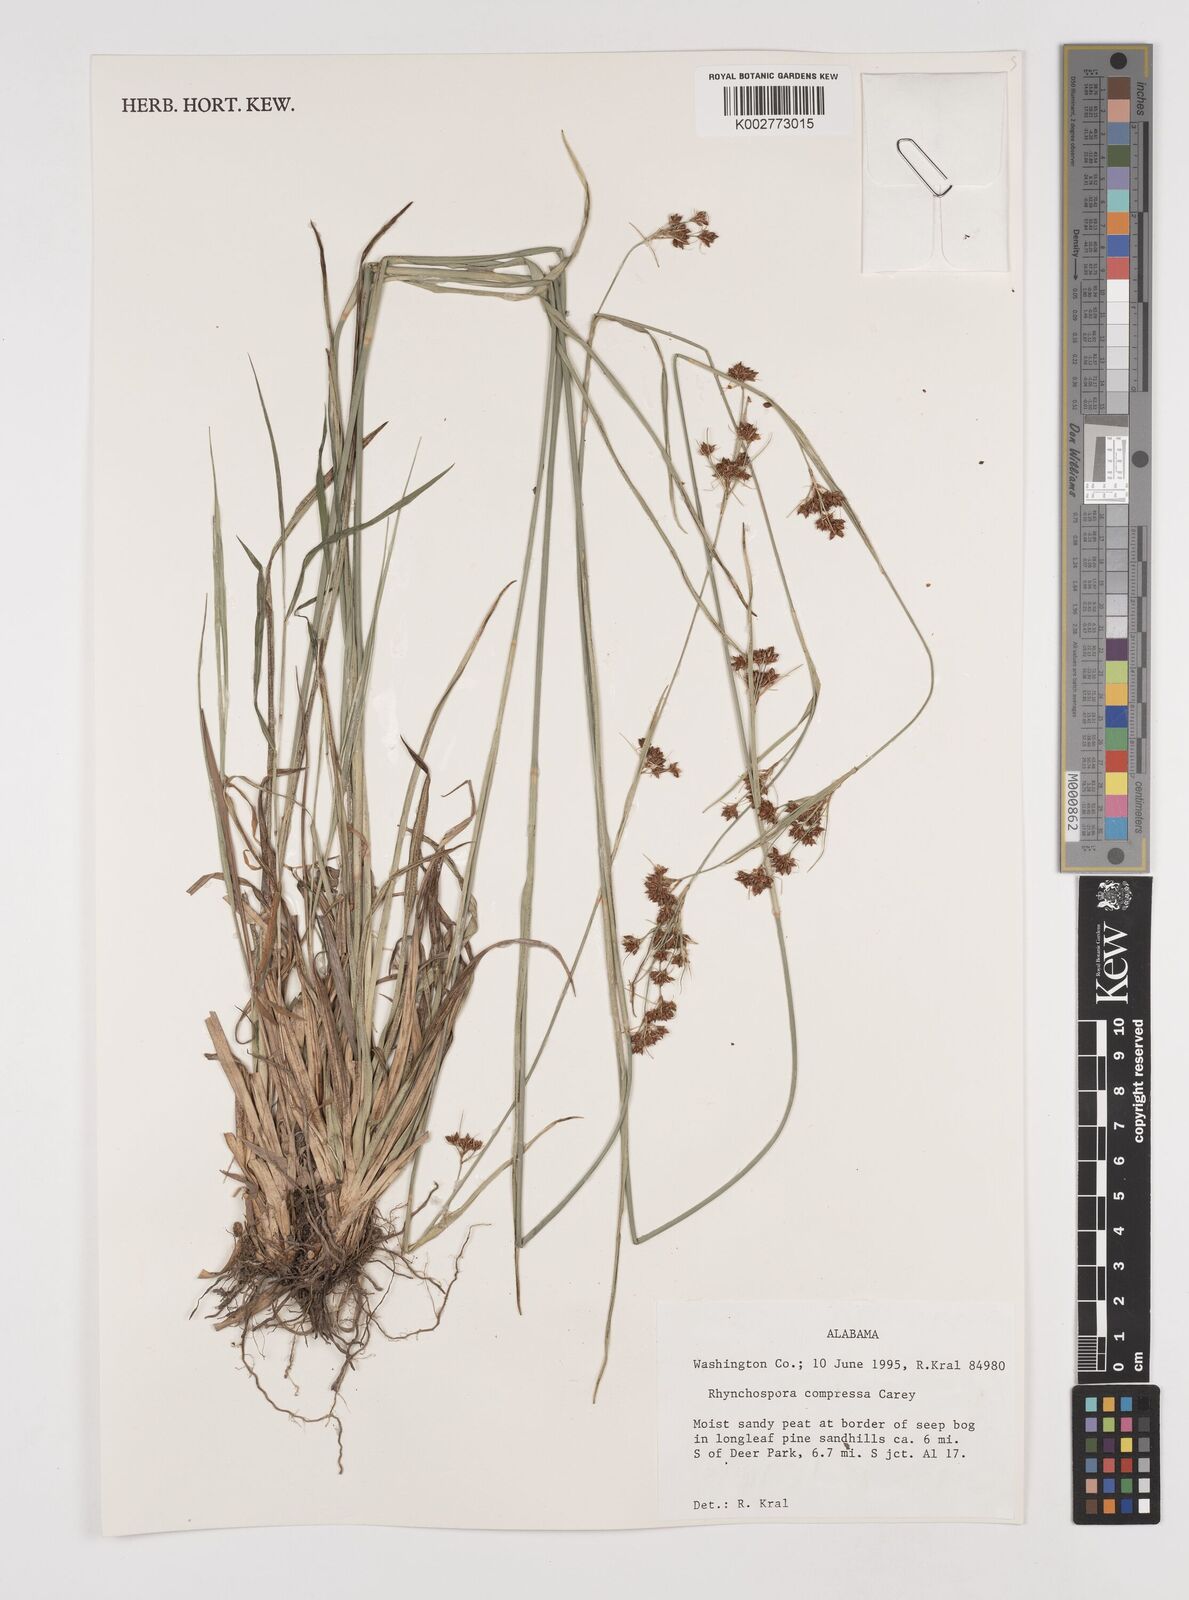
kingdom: Plantae
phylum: Tracheophyta
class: Liliopsida
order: Poales
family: Cyperaceae
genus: Rhynchospora
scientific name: Rhynchospora compressa
